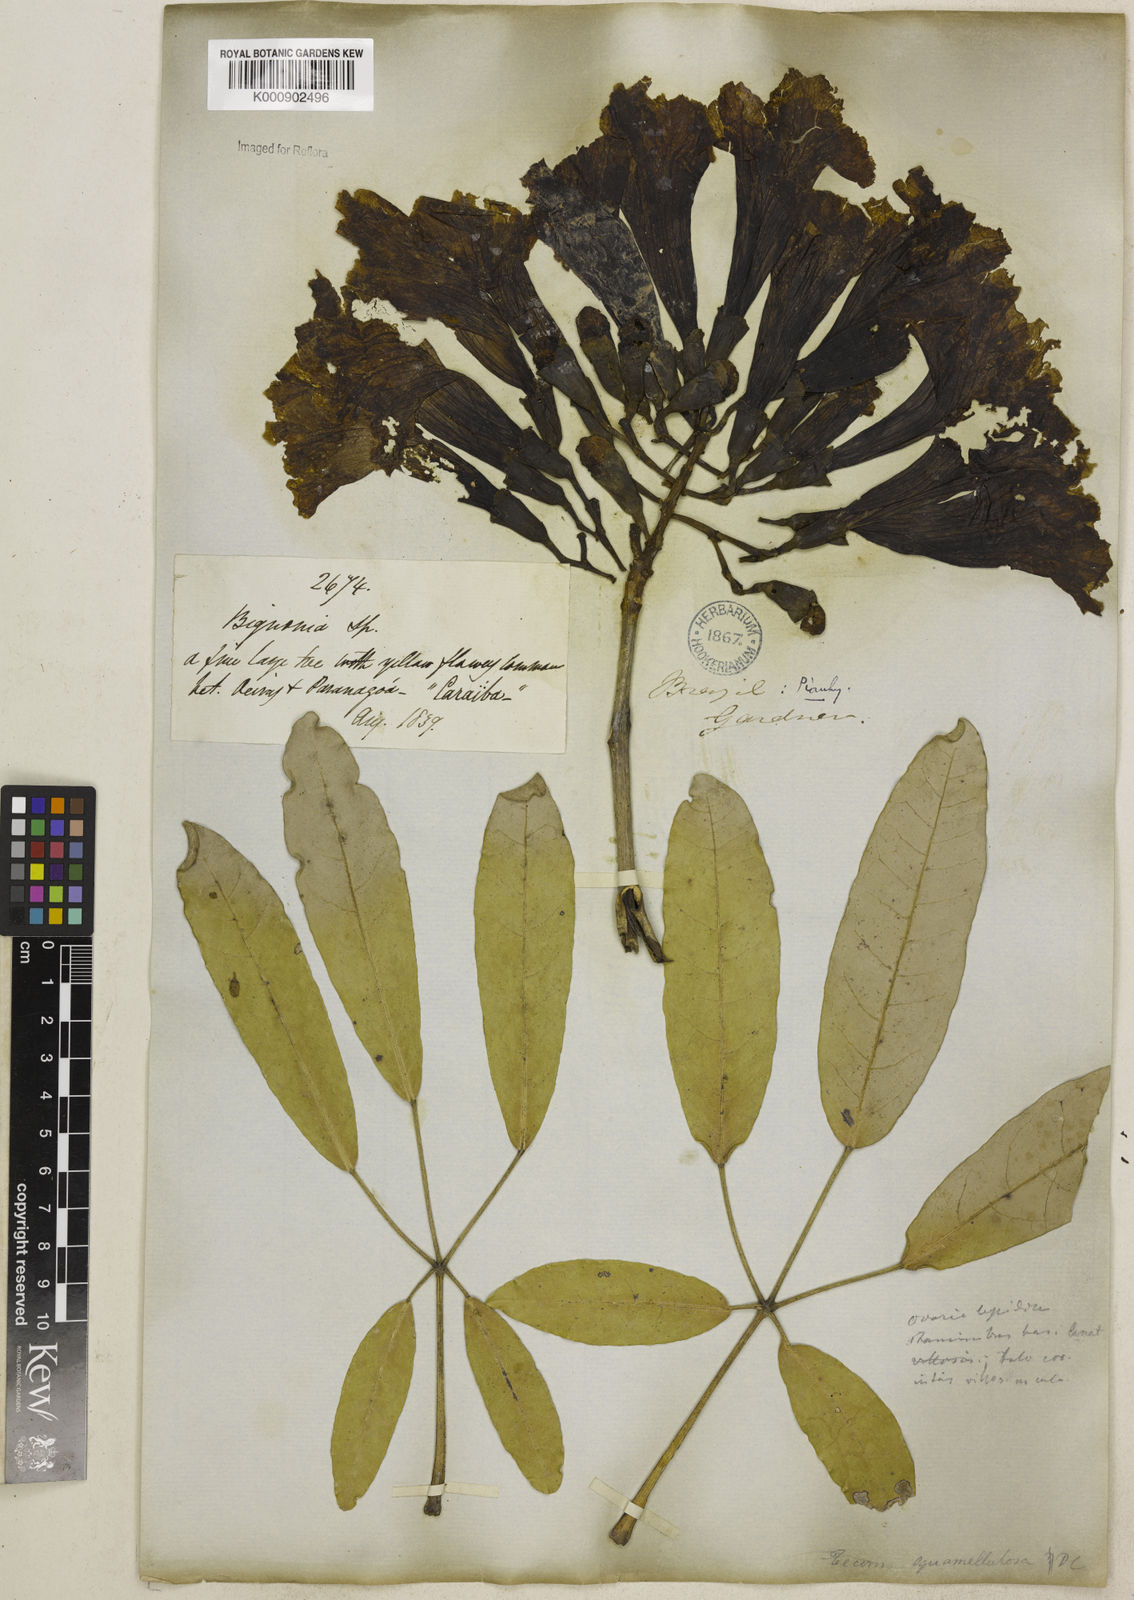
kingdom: Plantae
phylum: Tracheophyta
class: Magnoliopsida
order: Lamiales
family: Bignoniaceae
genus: Tabebuia
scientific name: Tabebuia aurea
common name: Caribbean trumpet-tree
